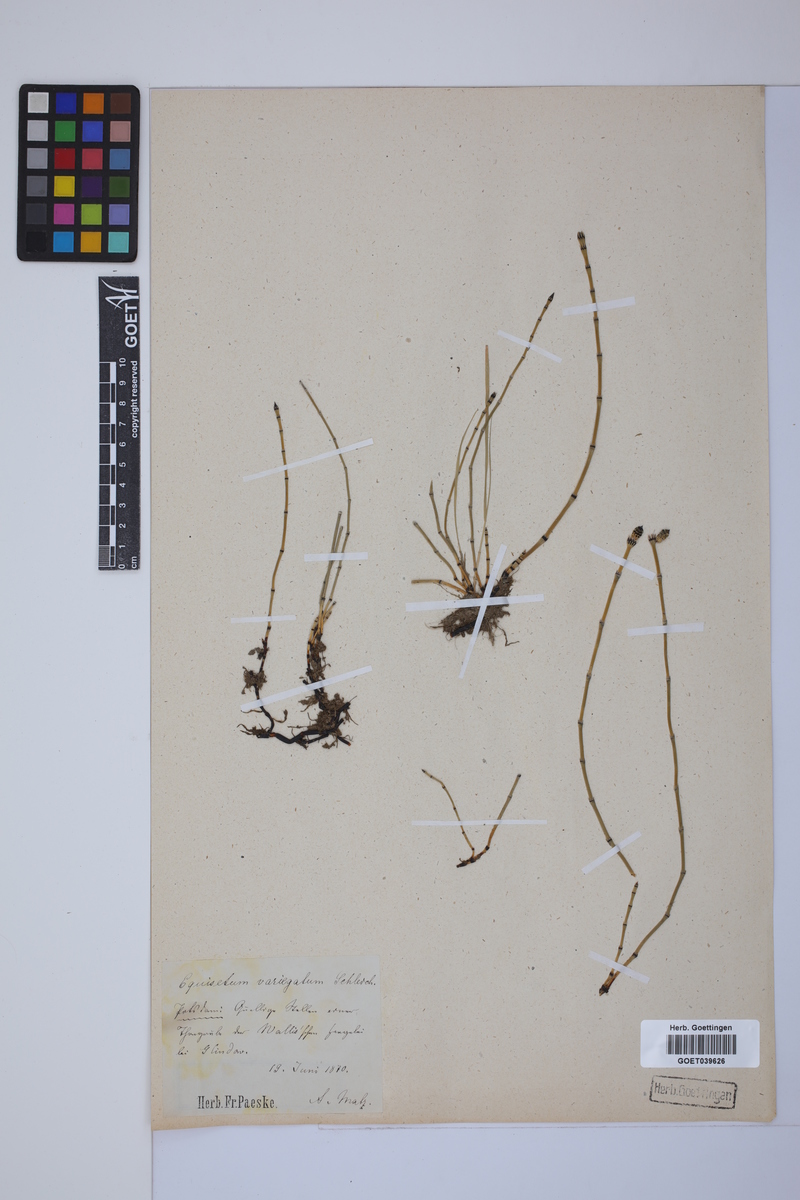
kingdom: Plantae
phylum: Tracheophyta
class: Polypodiopsida
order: Equisetales
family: Equisetaceae
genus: Equisetum
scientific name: Equisetum variegatum
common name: Variegated horsetail
